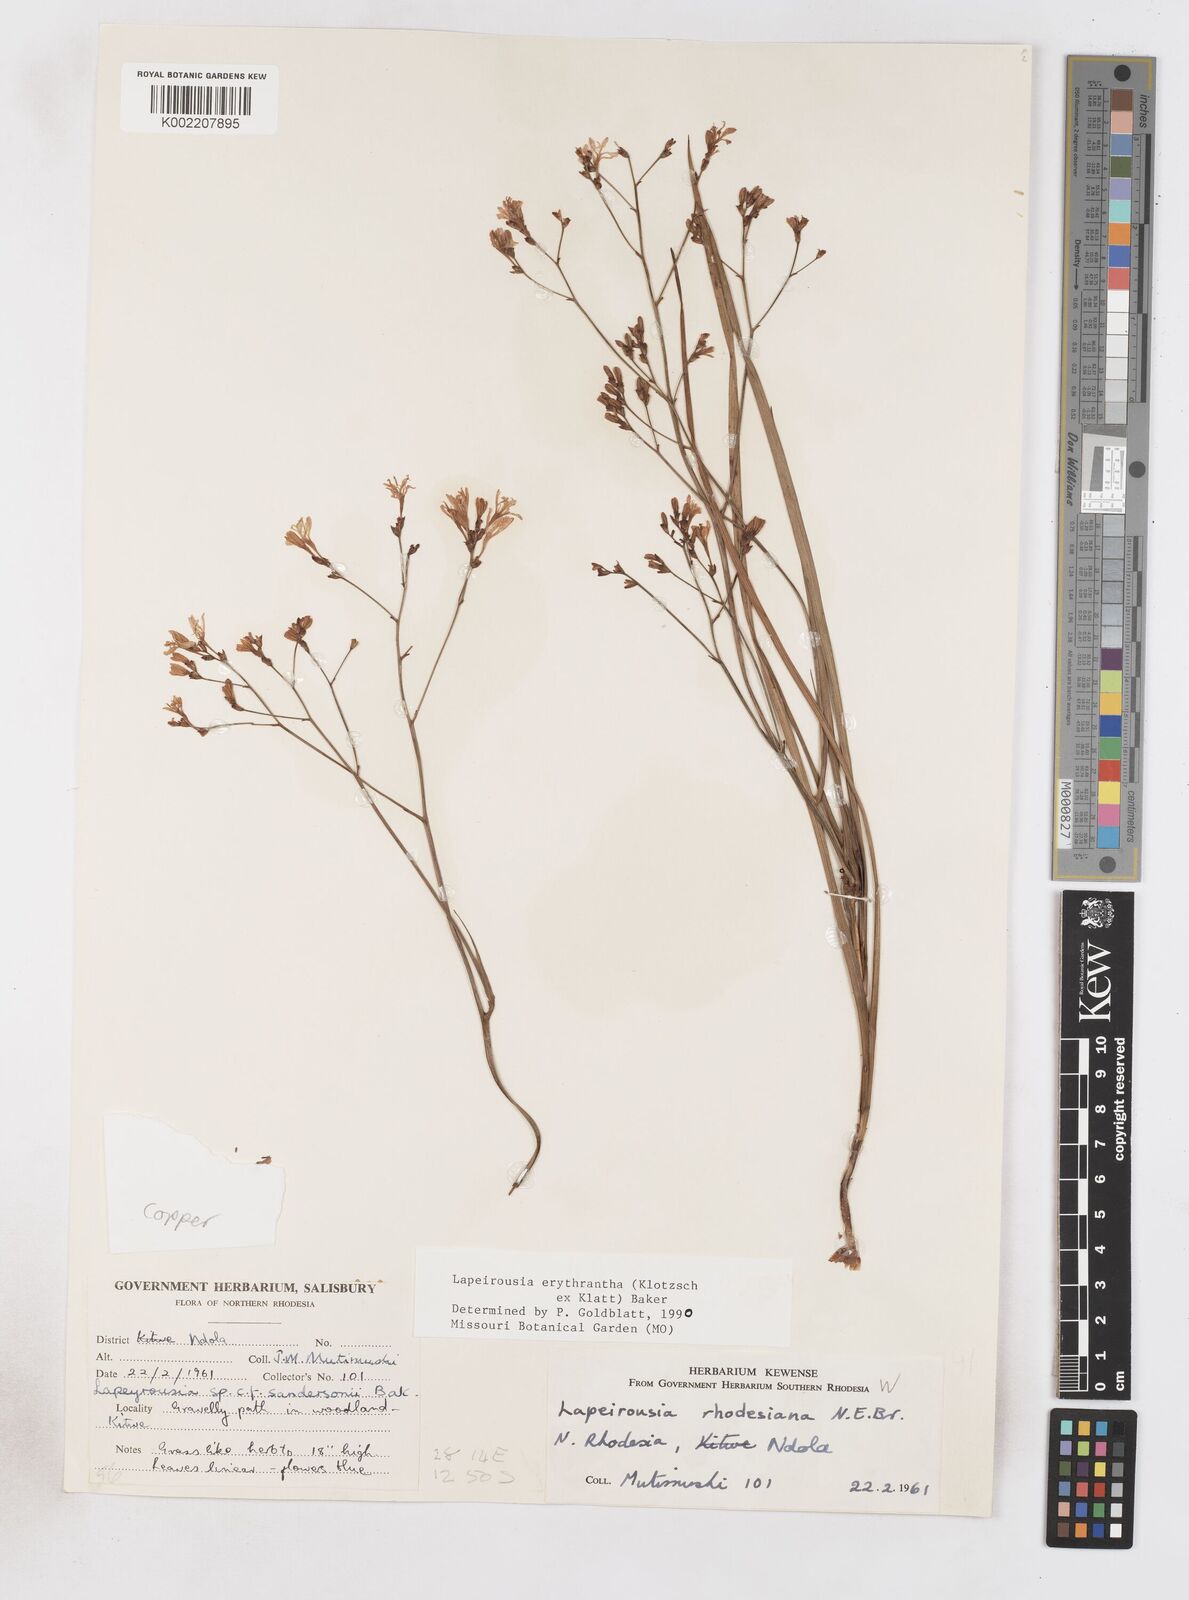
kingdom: Plantae
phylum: Tracheophyta
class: Liliopsida
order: Asparagales
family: Iridaceae
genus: Afrosolen
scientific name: Afrosolen erythranthus
